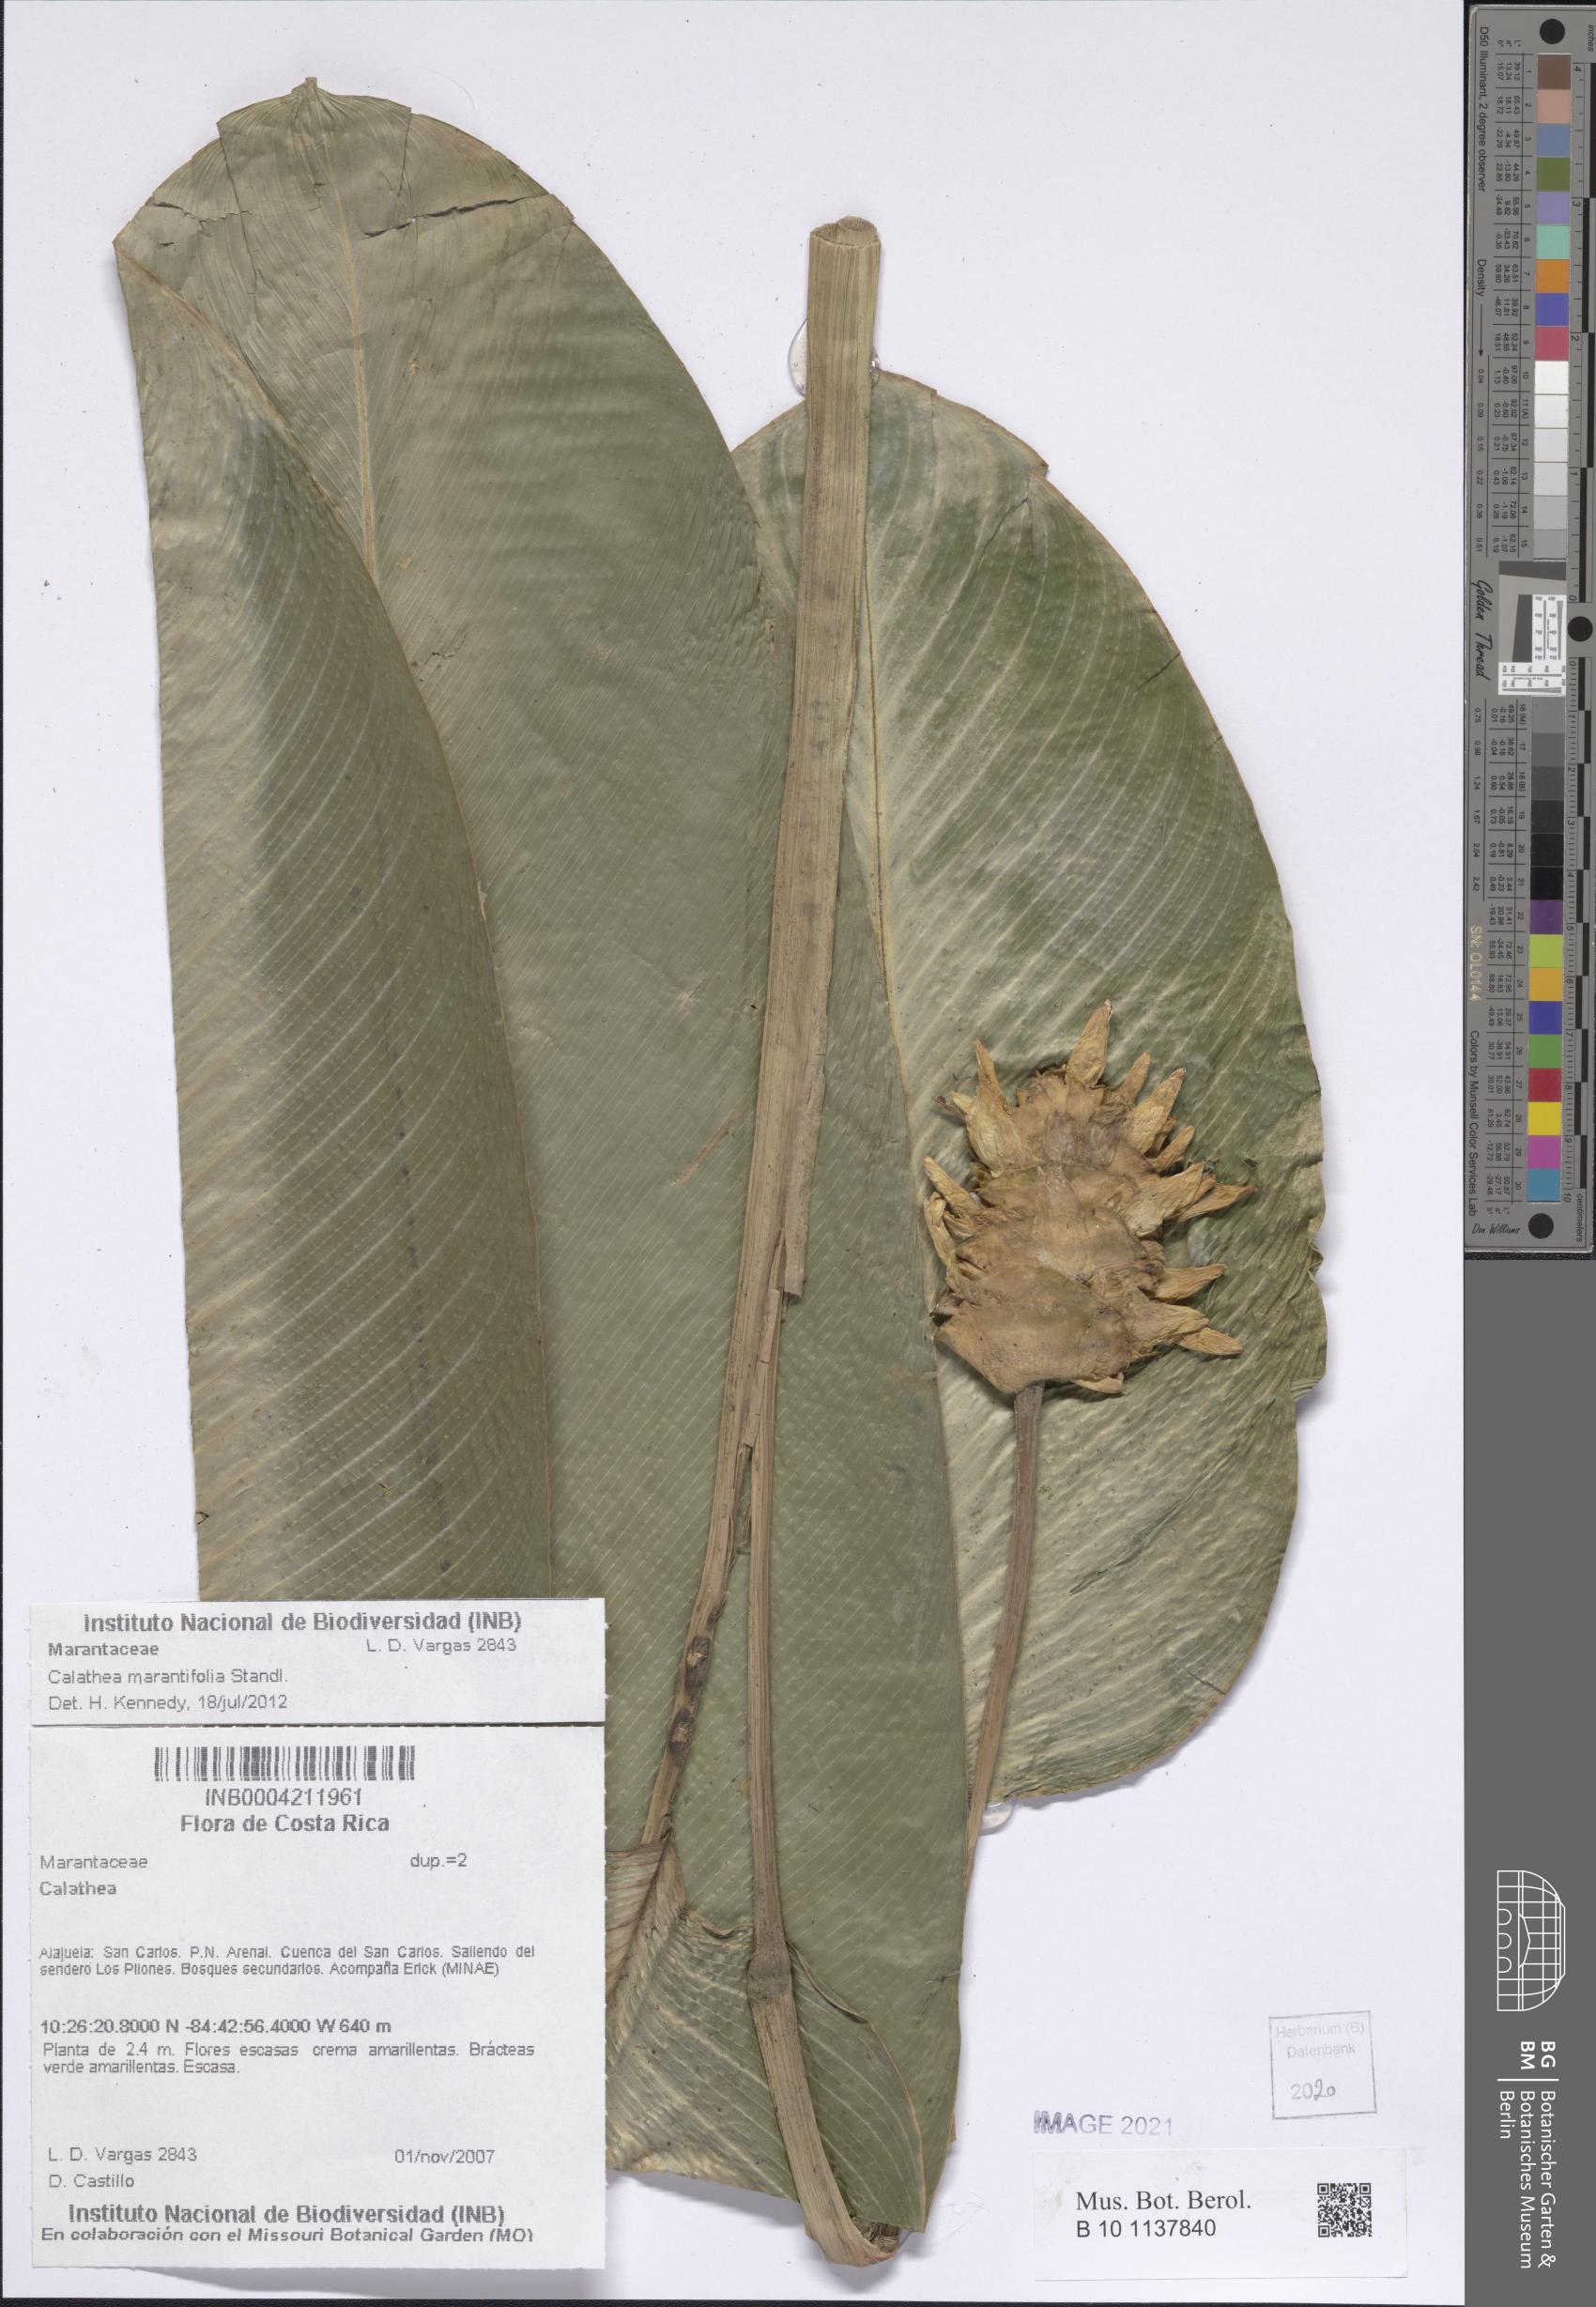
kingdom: Plantae
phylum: Tracheophyta
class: Liliopsida
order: Zingiberales
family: Marantaceae
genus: Goeppertia
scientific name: Goeppertia marantifolia
